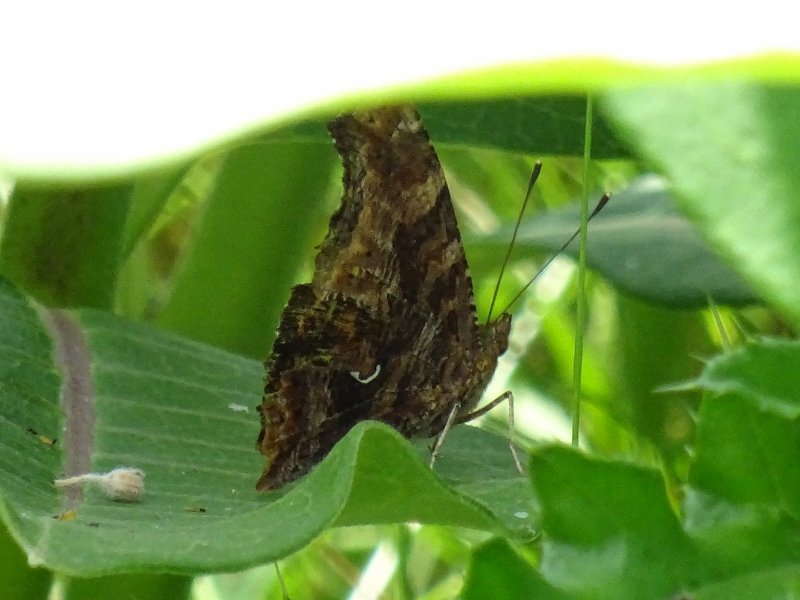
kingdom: Animalia
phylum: Arthropoda
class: Insecta
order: Lepidoptera
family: Nymphalidae
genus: Polygonia
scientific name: Polygonia comma
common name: Eastern Comma
